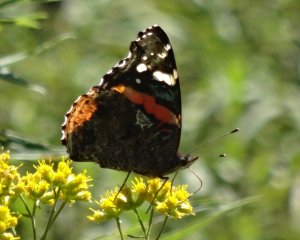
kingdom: Animalia
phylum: Arthropoda
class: Insecta
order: Lepidoptera
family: Nymphalidae
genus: Vanessa
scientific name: Vanessa atalanta
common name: Red Admiral
